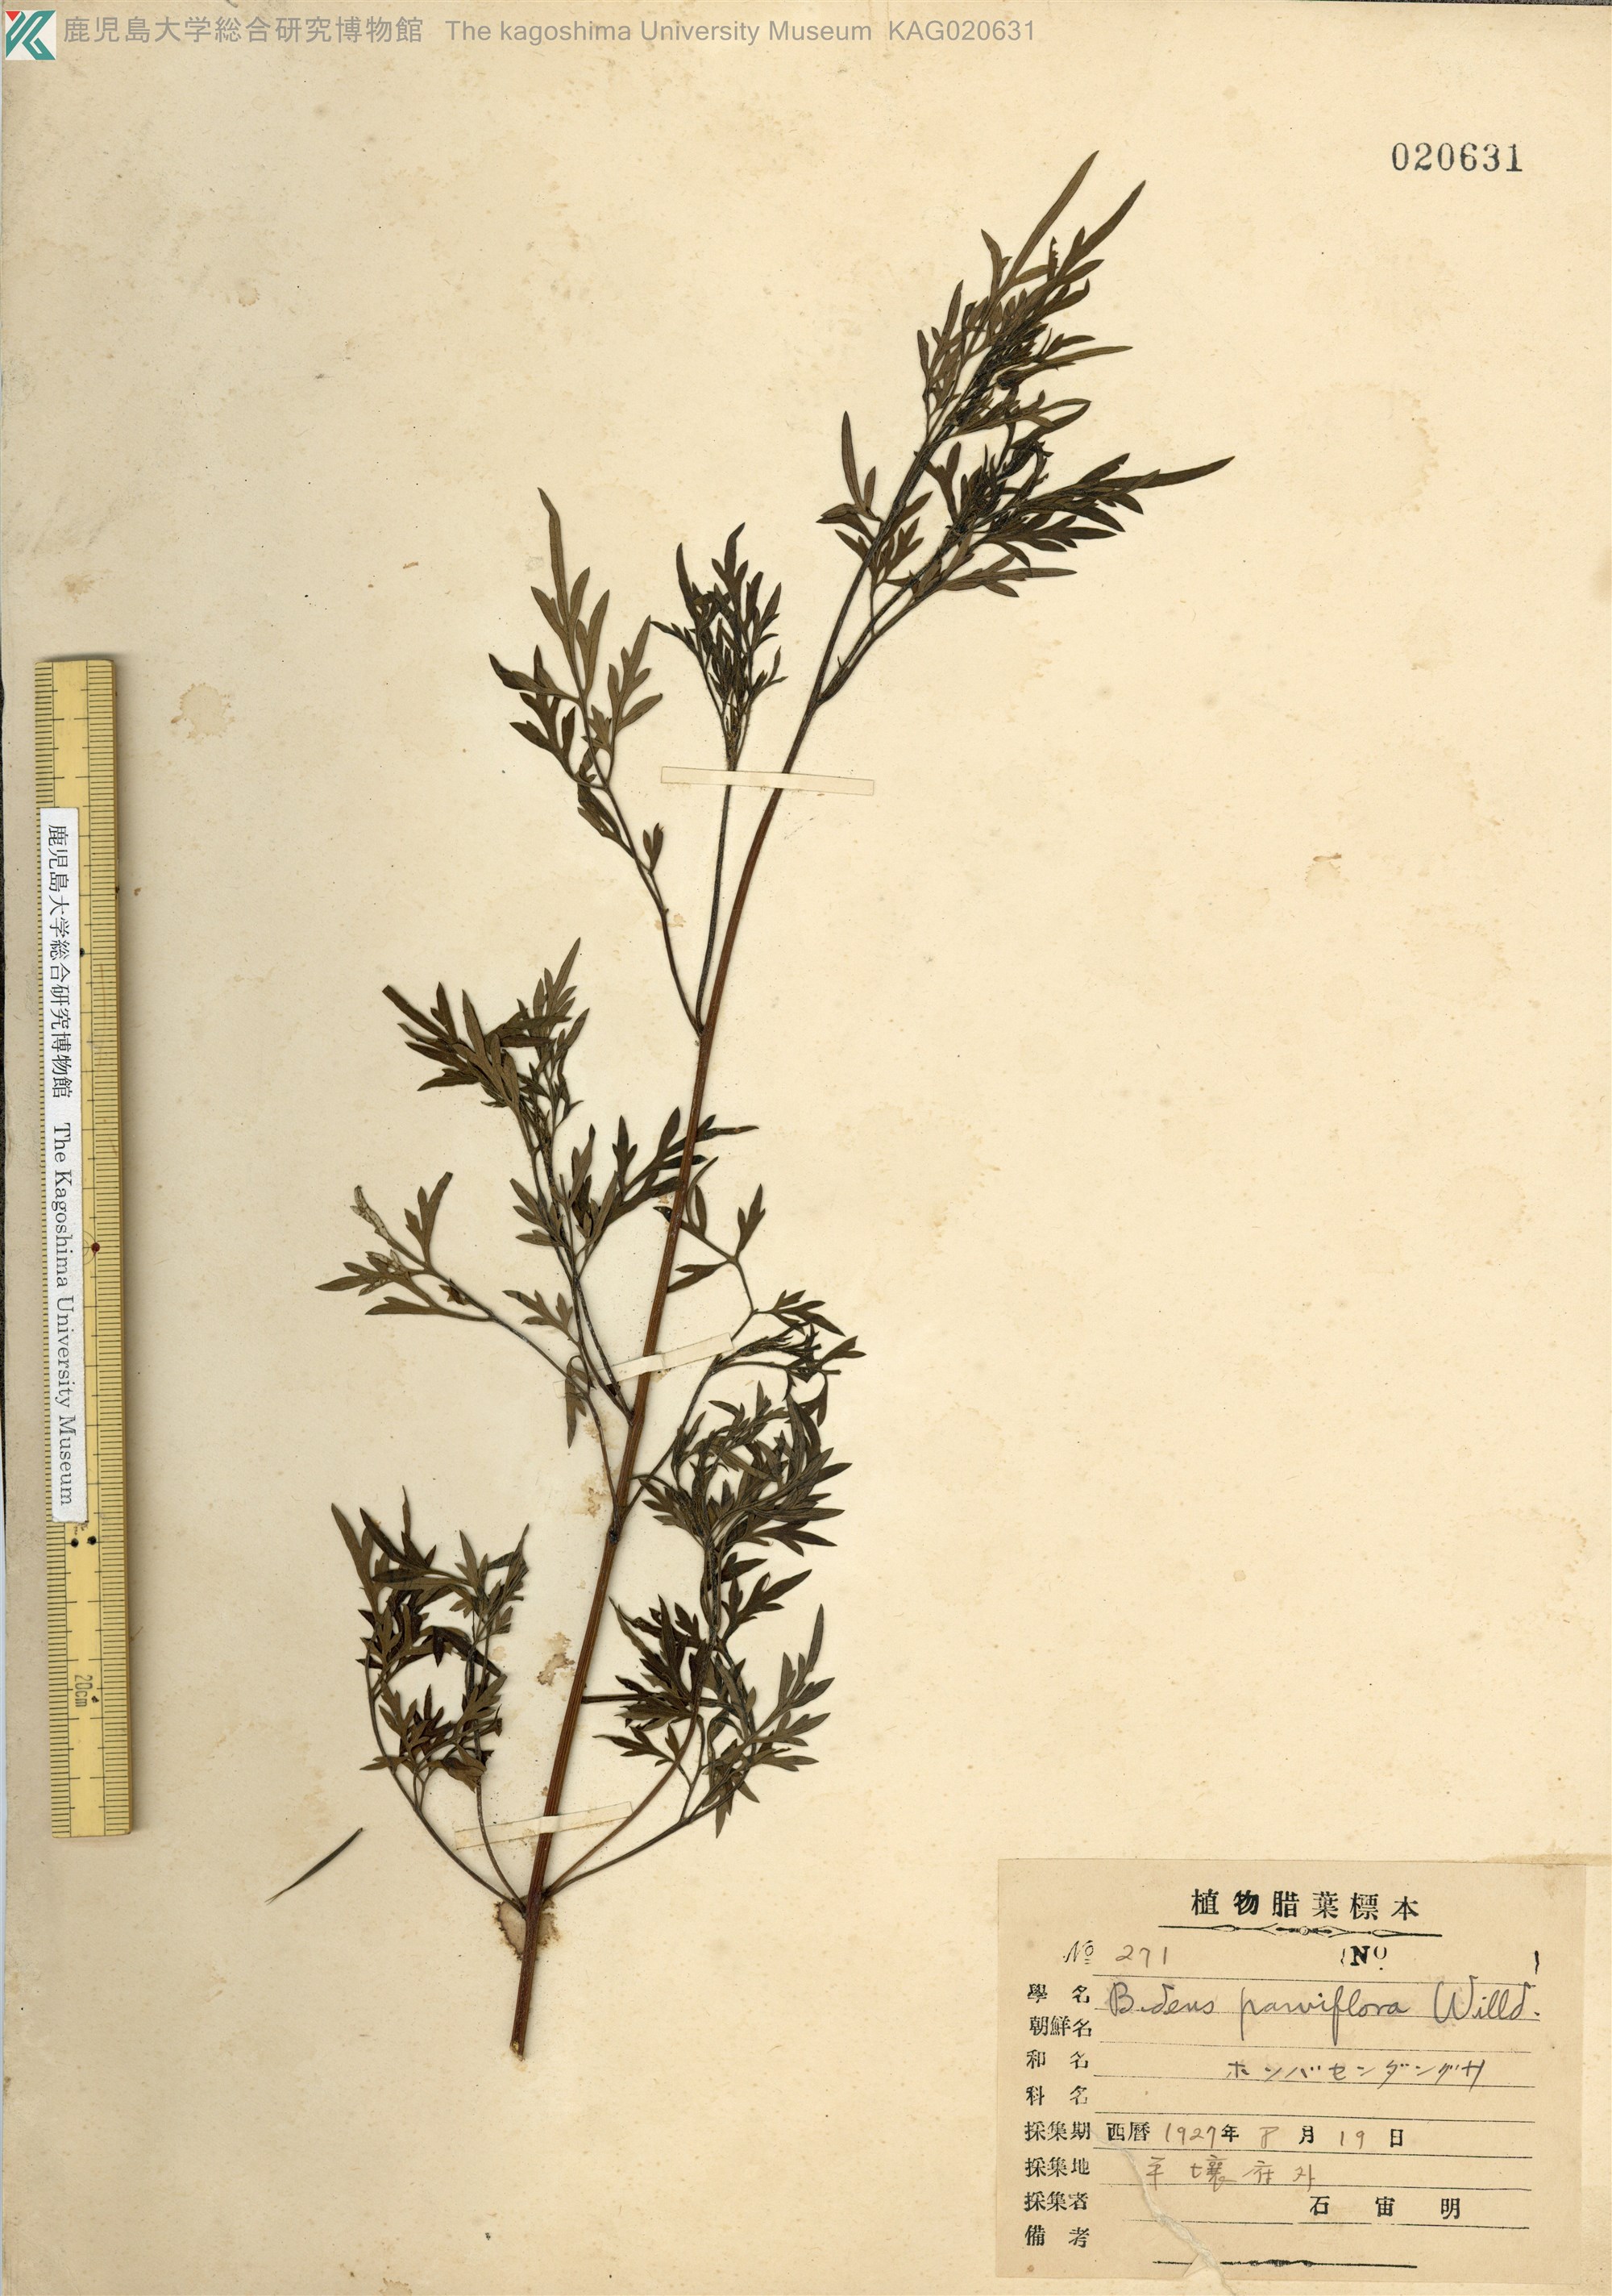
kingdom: Plantae
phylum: Tracheophyta
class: Magnoliopsida
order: Asterales
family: Asteraceae
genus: Bidens
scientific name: Bidens parviflora
